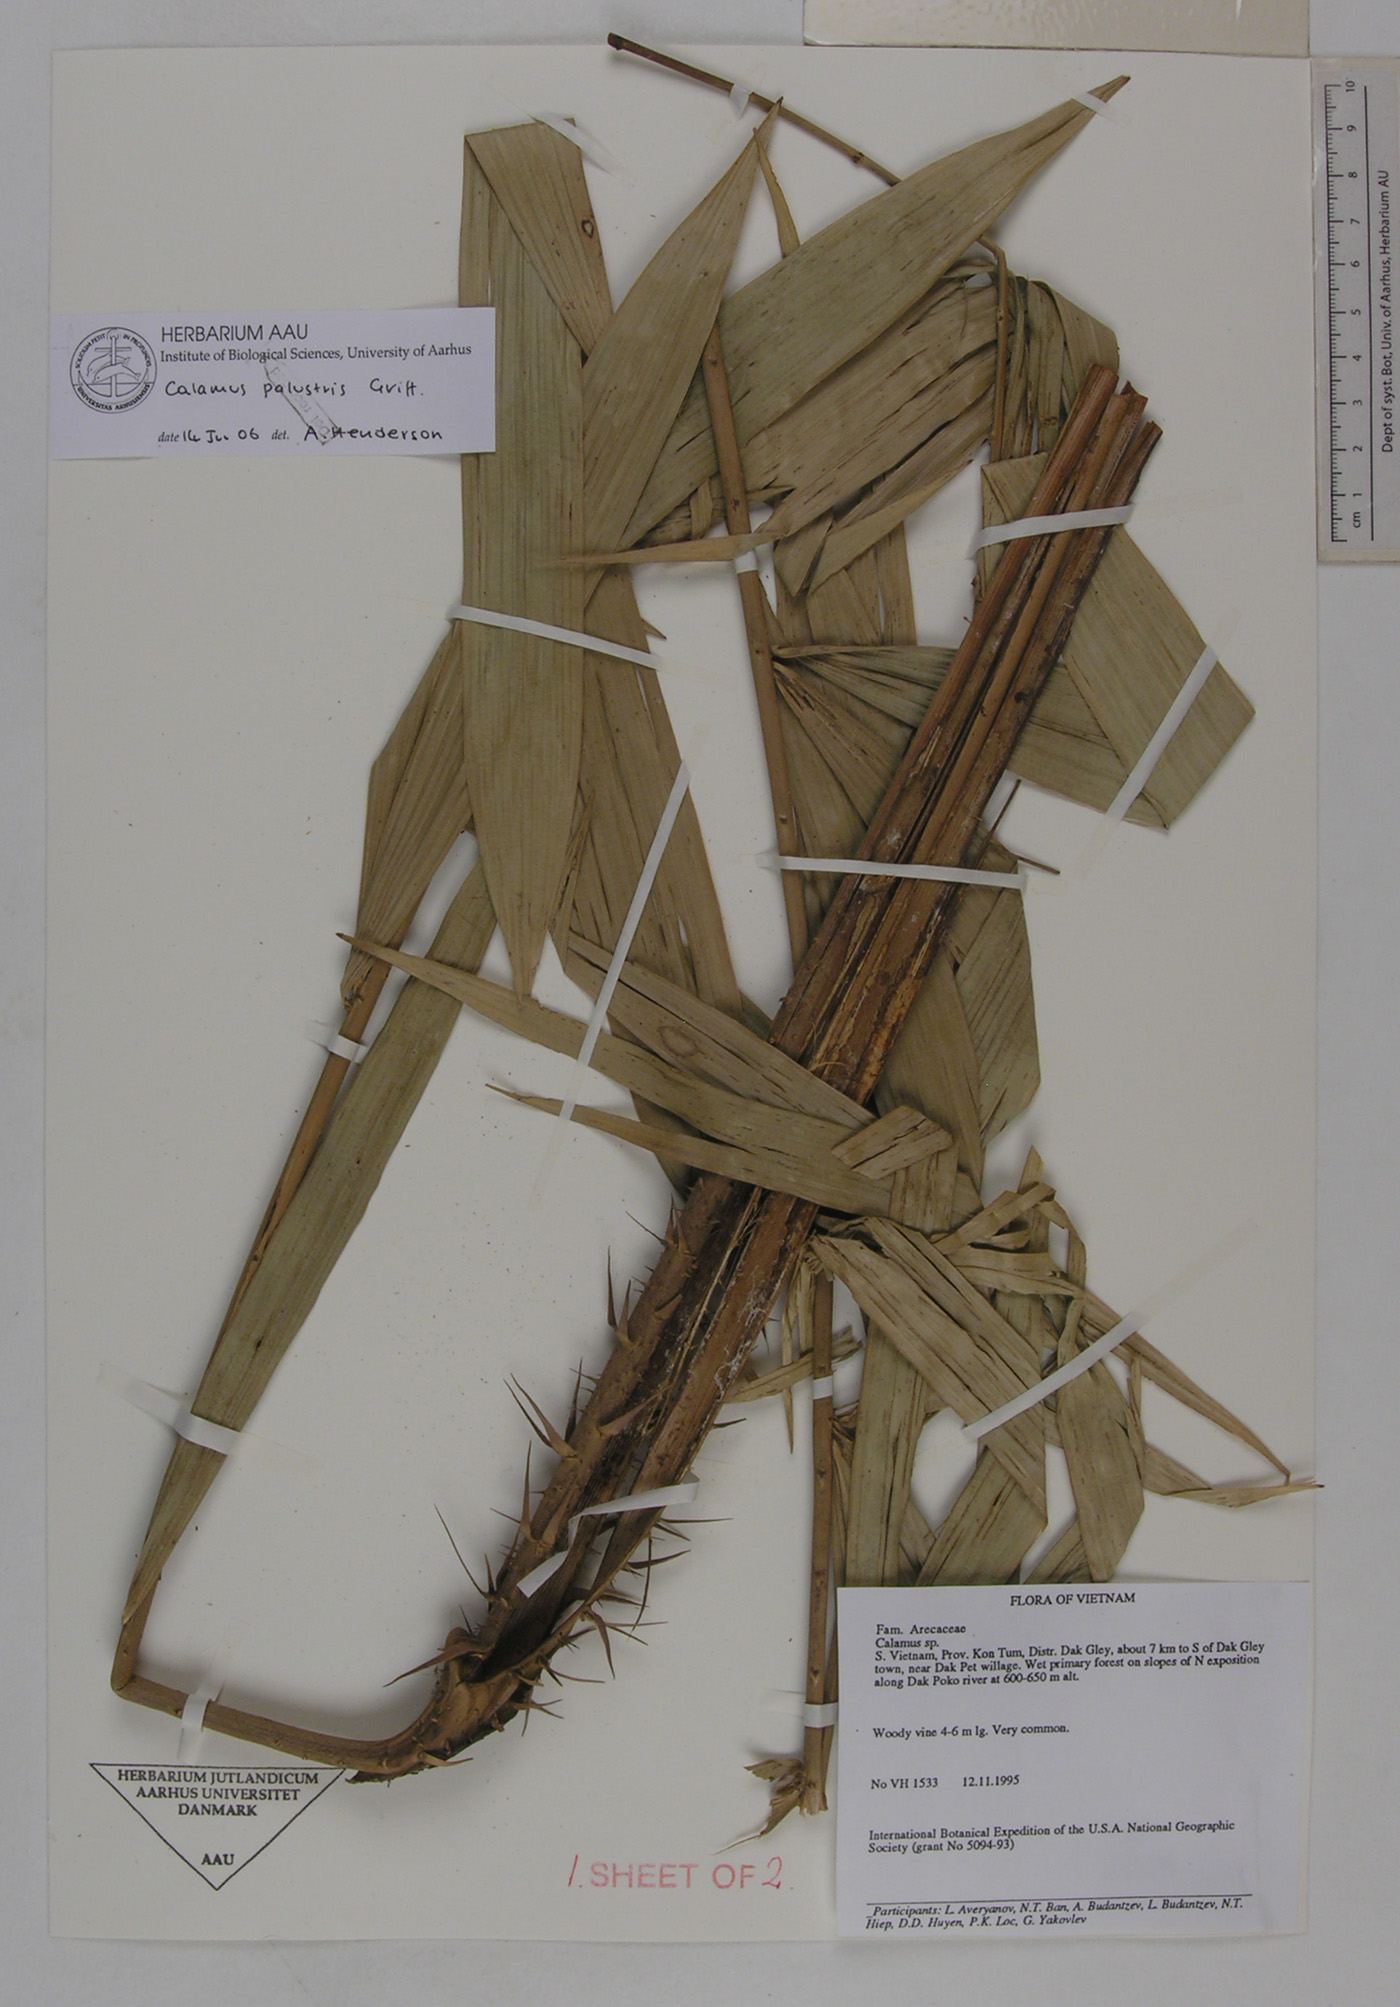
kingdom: Plantae
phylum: Tracheophyta
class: Liliopsida
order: Arecales
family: Arecaceae
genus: Calamus
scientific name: Calamus latifolius
